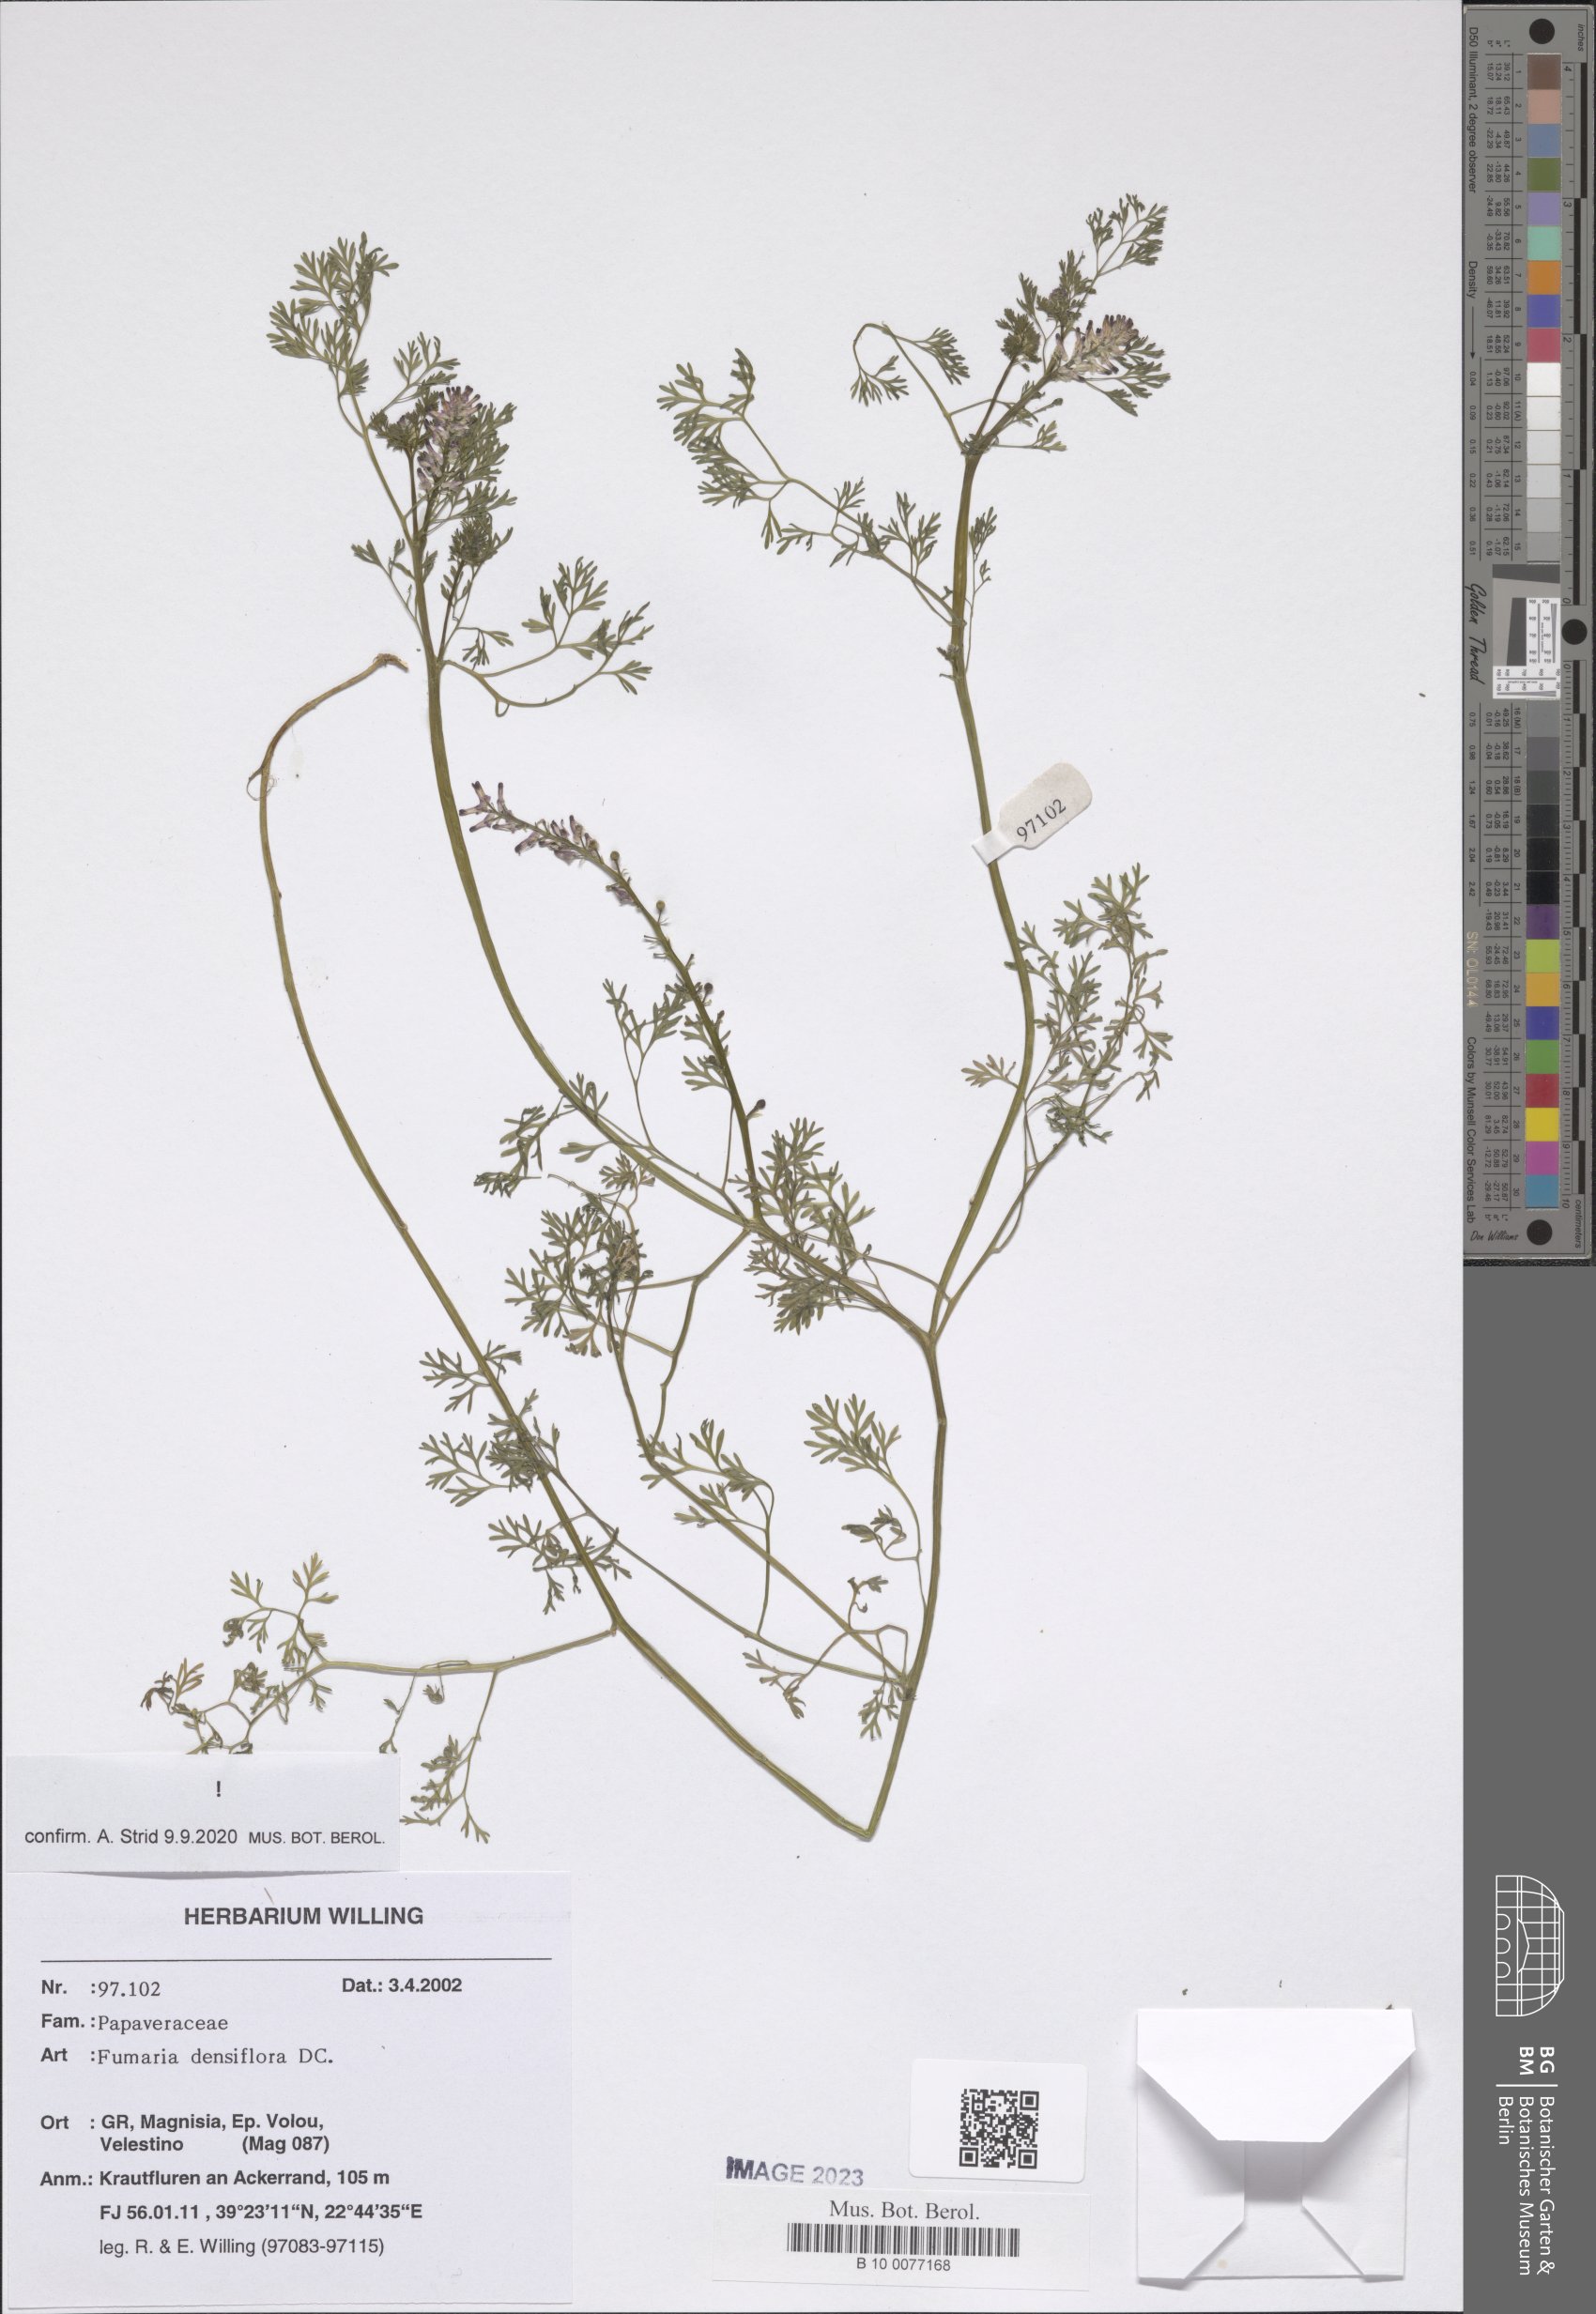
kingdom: Plantae
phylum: Tracheophyta
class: Magnoliopsida
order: Ranunculales
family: Papaveraceae
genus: Fumaria
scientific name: Fumaria densiflora
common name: Dense-flowered fumitory
